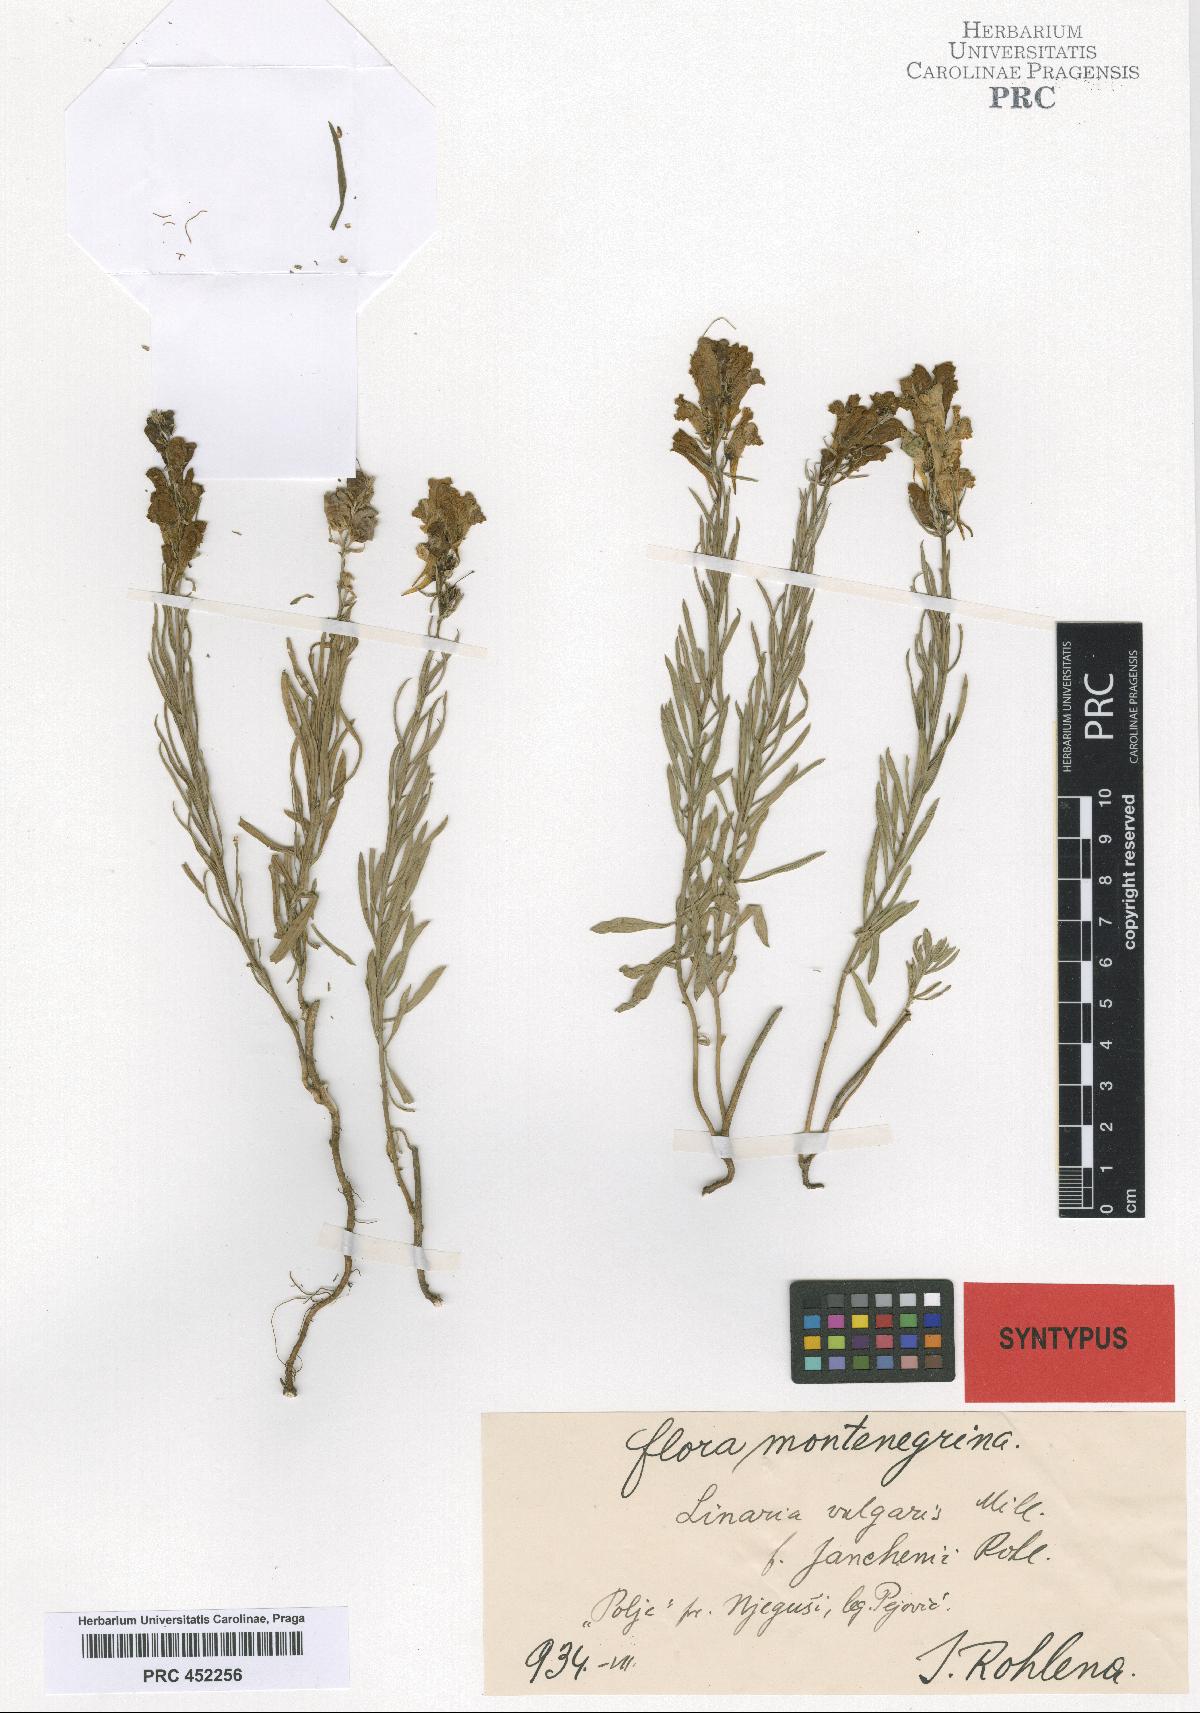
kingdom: Plantae
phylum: Tracheophyta
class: Magnoliopsida
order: Lamiales
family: Plantaginaceae
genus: Linaria
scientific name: Linaria vulgaris
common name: Butter and eggs
